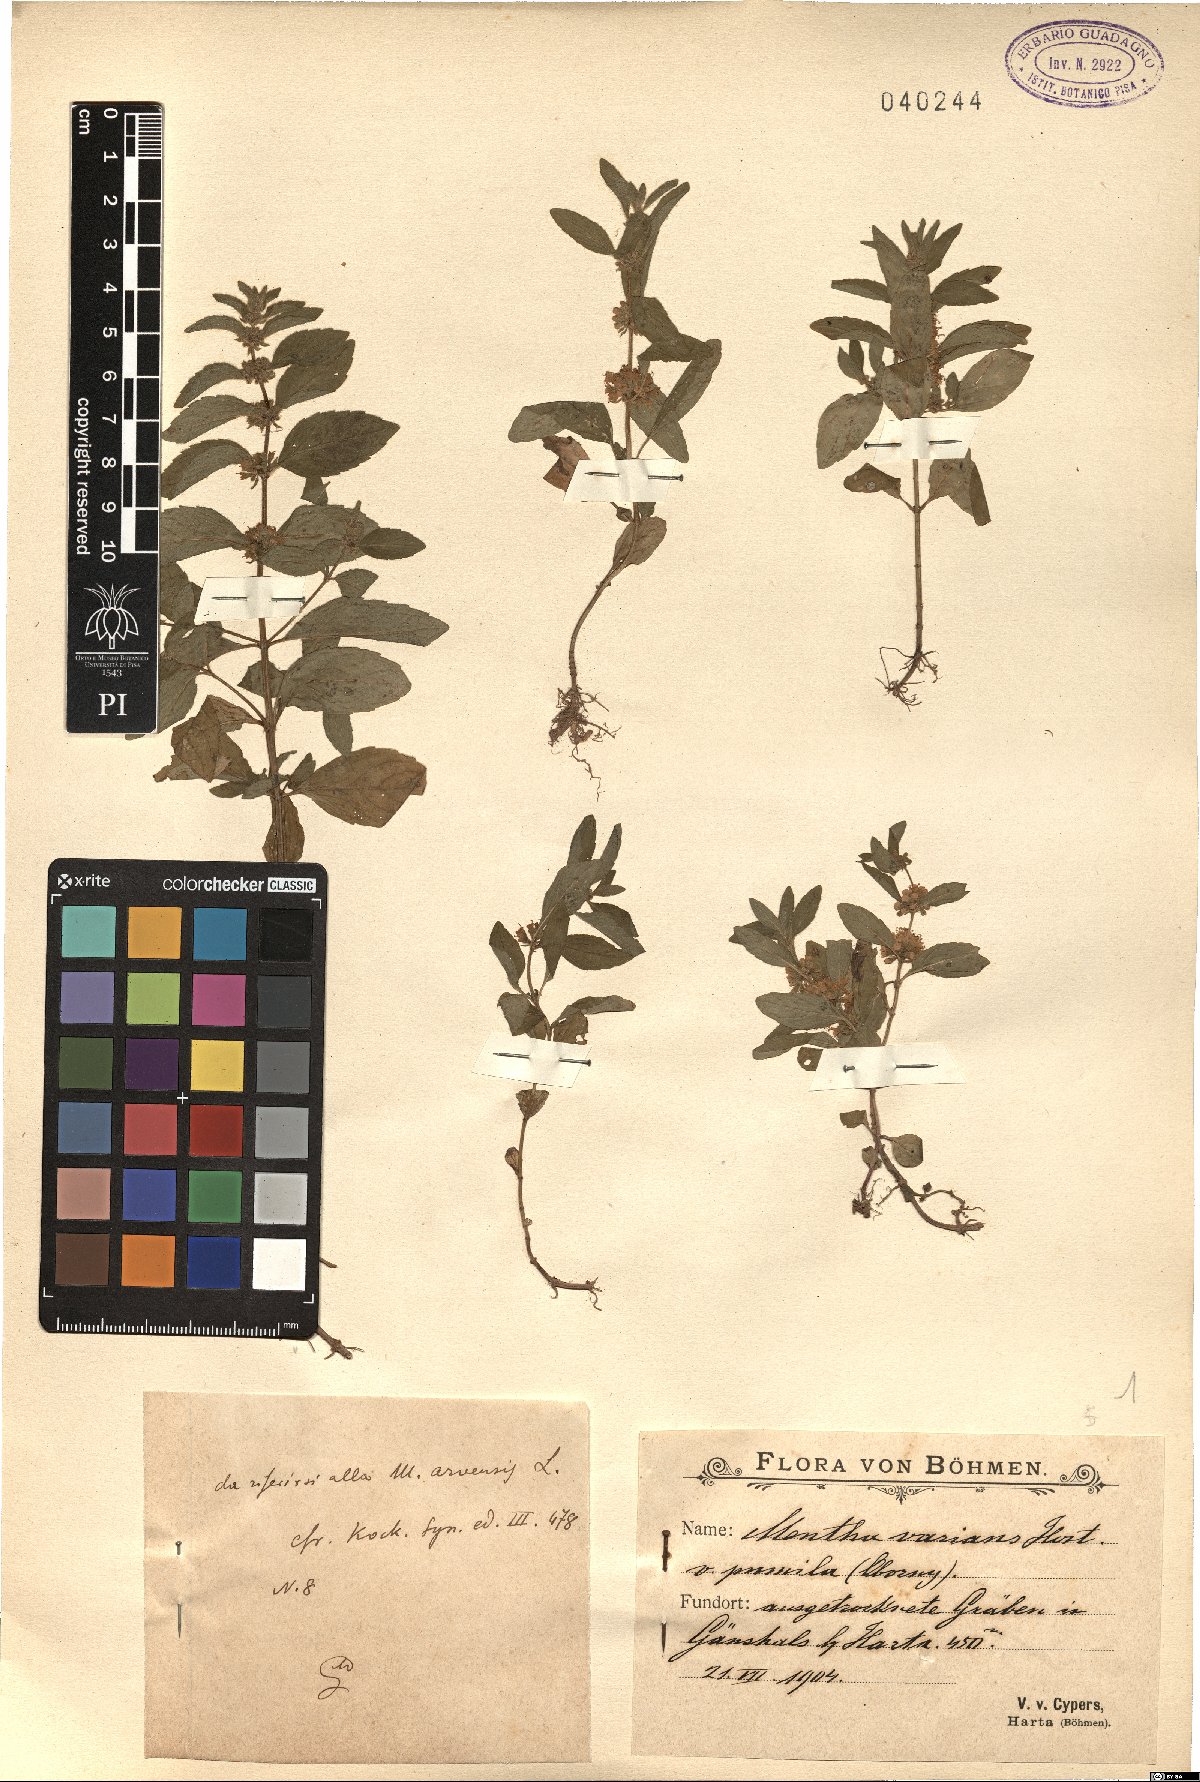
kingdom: Plantae
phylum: Tracheophyta
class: Magnoliopsida
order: Lamiales
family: Lamiaceae
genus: Mentha
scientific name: Mentha arvensis
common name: Corn mint
